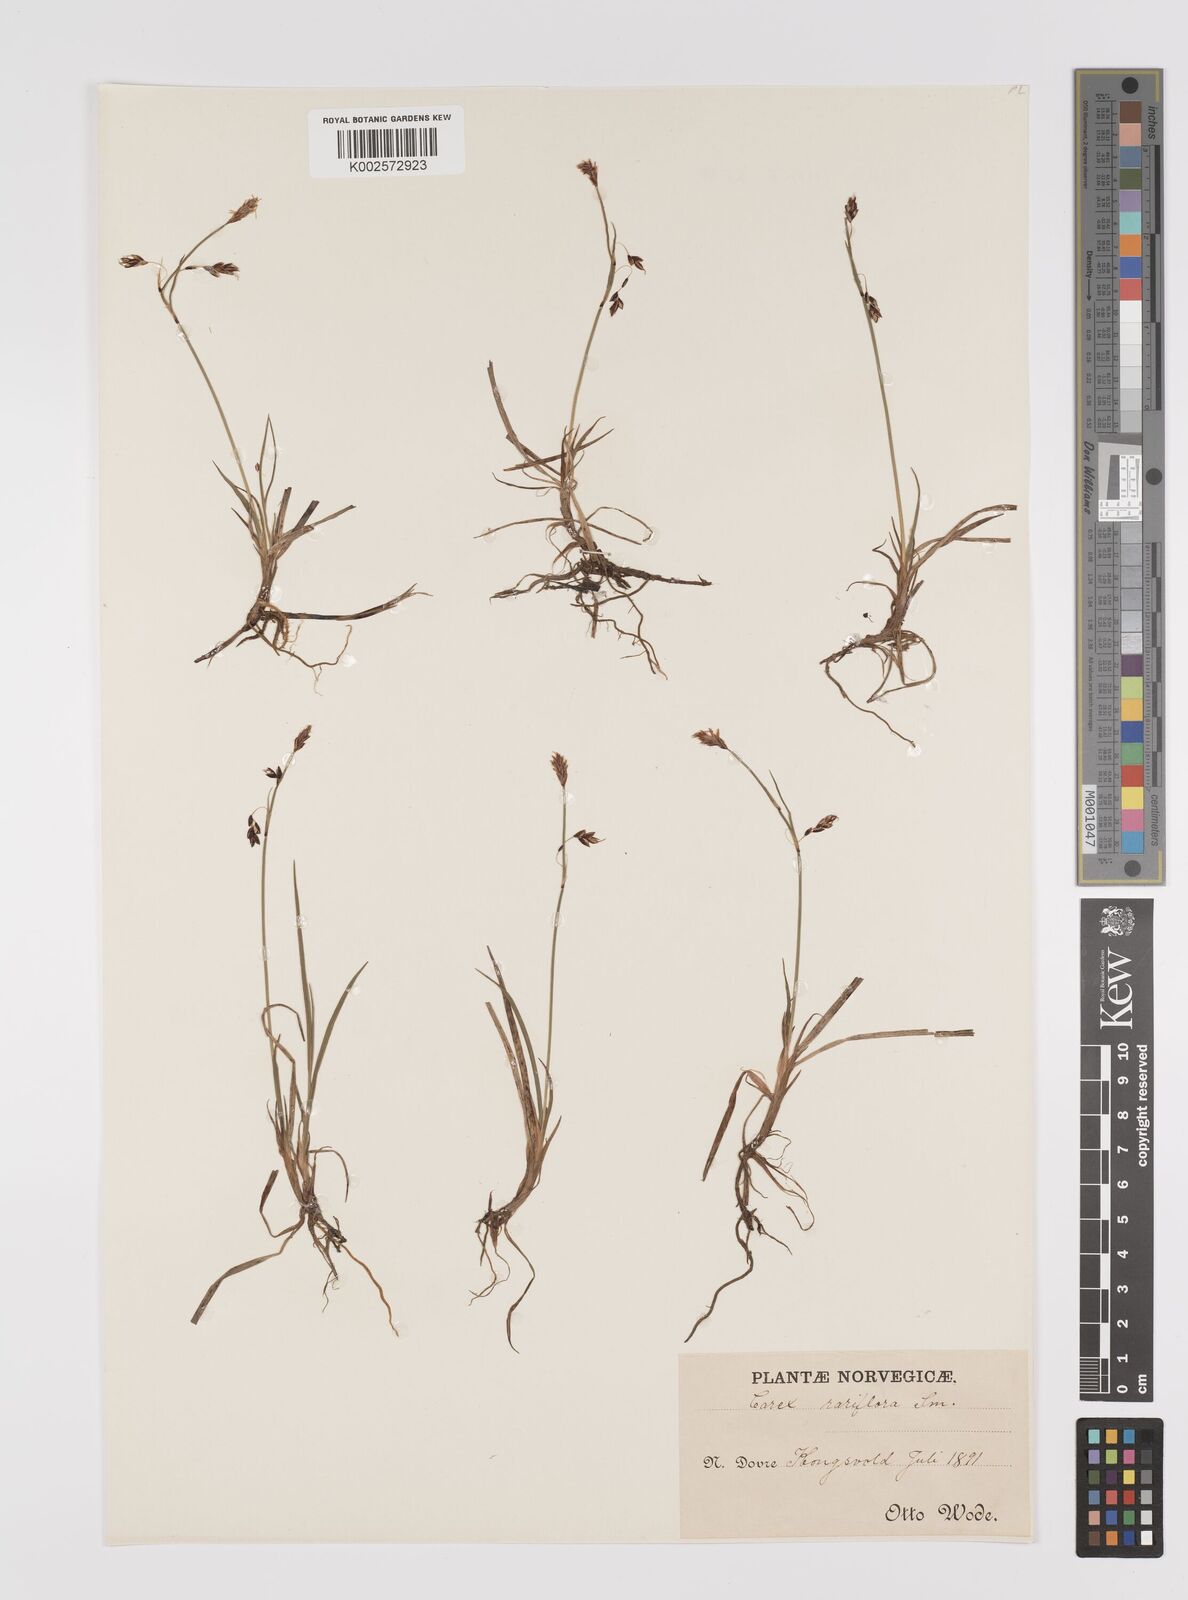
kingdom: Plantae
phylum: Tracheophyta
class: Liliopsida
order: Poales
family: Cyperaceae
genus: Carex
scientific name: Carex rariflora
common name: Loose-flowered alpine sedge
